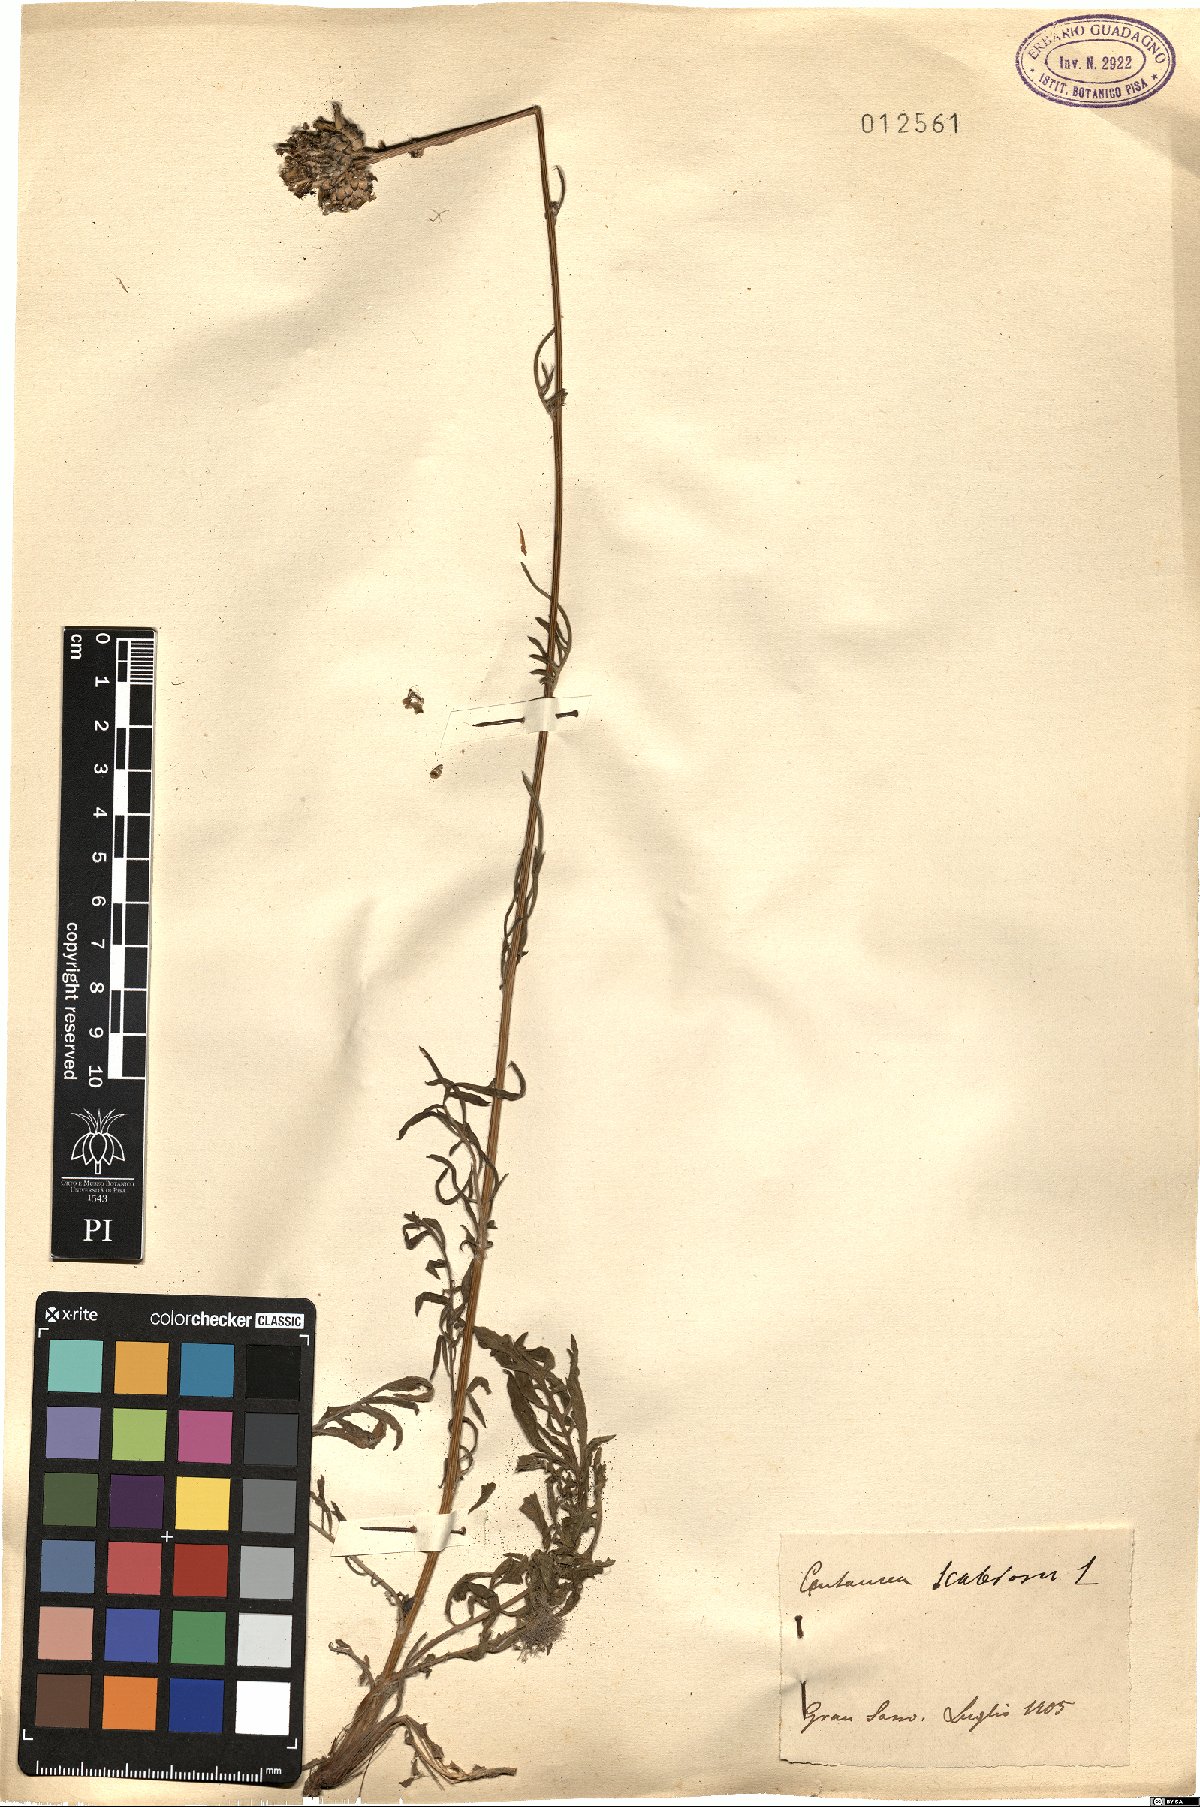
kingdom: Plantae
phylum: Tracheophyta
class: Magnoliopsida
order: Asterales
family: Asteraceae
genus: Centaurea
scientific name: Centaurea scabiosa
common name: Greater knapweed
